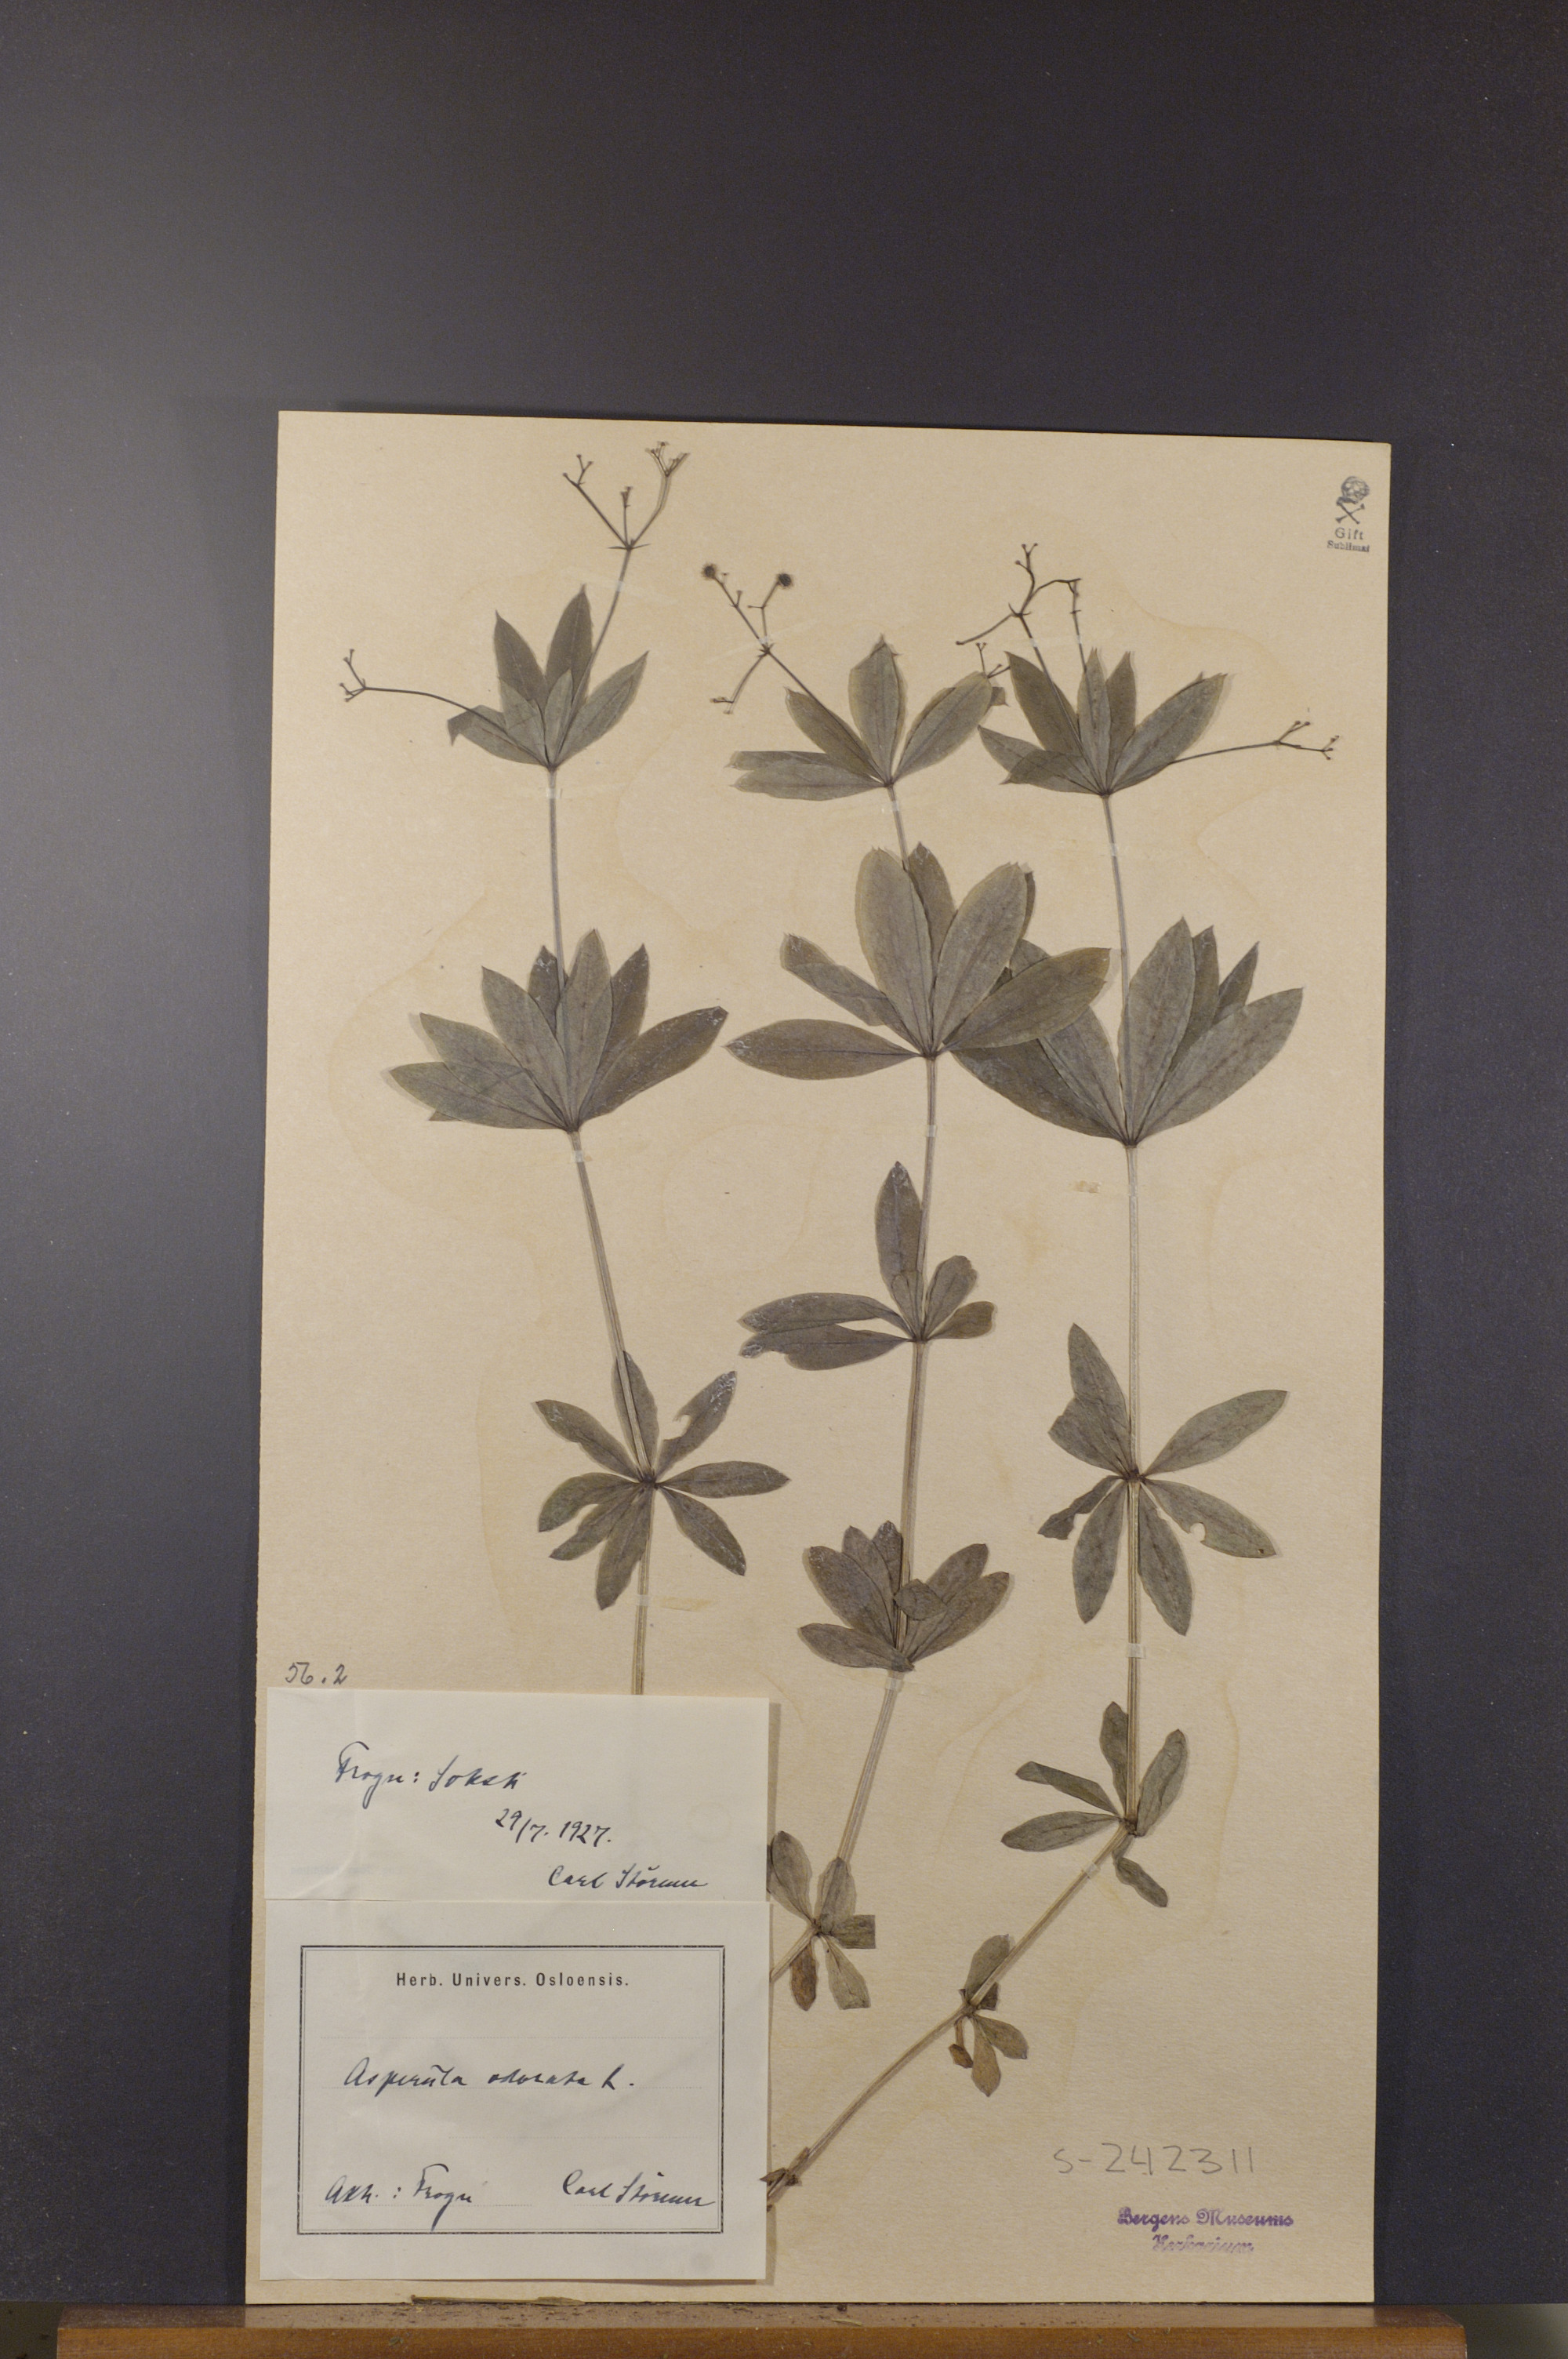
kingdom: Plantae
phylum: Tracheophyta
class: Magnoliopsida
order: Gentianales
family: Rubiaceae
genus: Galium
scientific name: Galium odoratum
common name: Sweet woodruff
